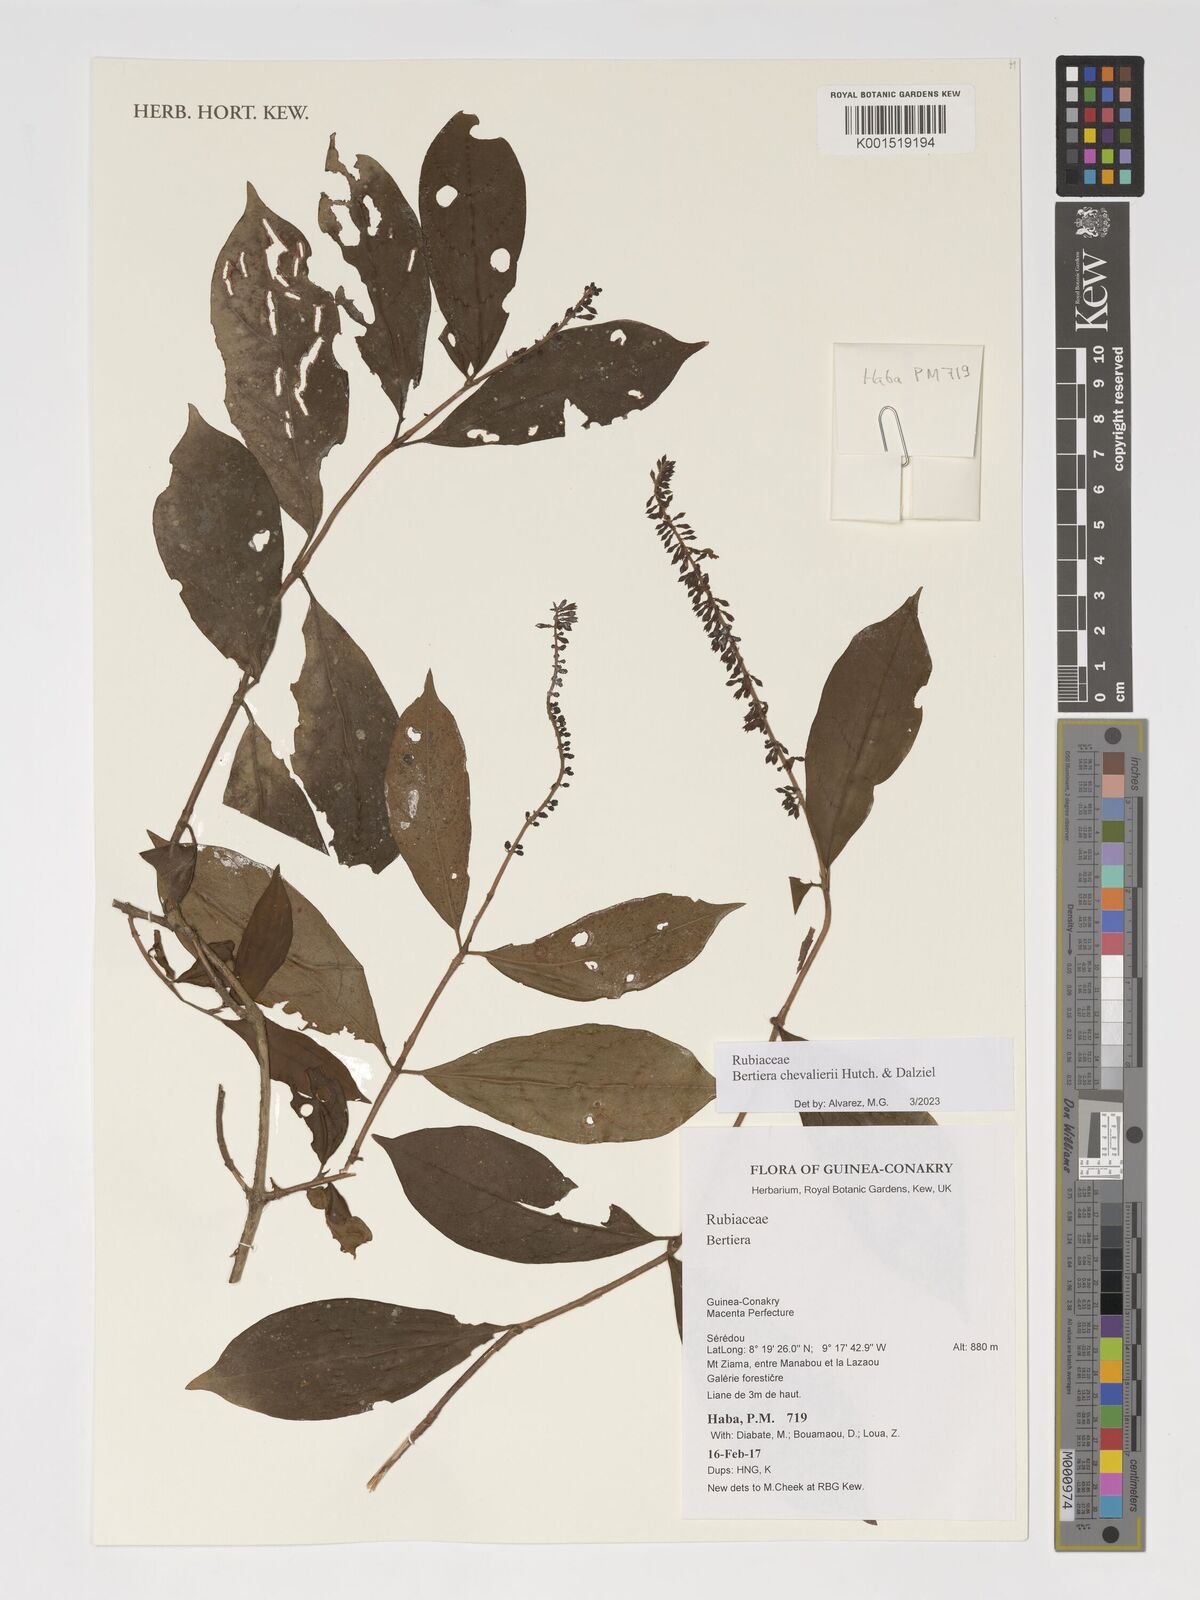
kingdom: Plantae
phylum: Tracheophyta
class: Magnoliopsida
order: Gentianales
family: Rubiaceae
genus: Bertiera
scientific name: Bertiera chevalieri
